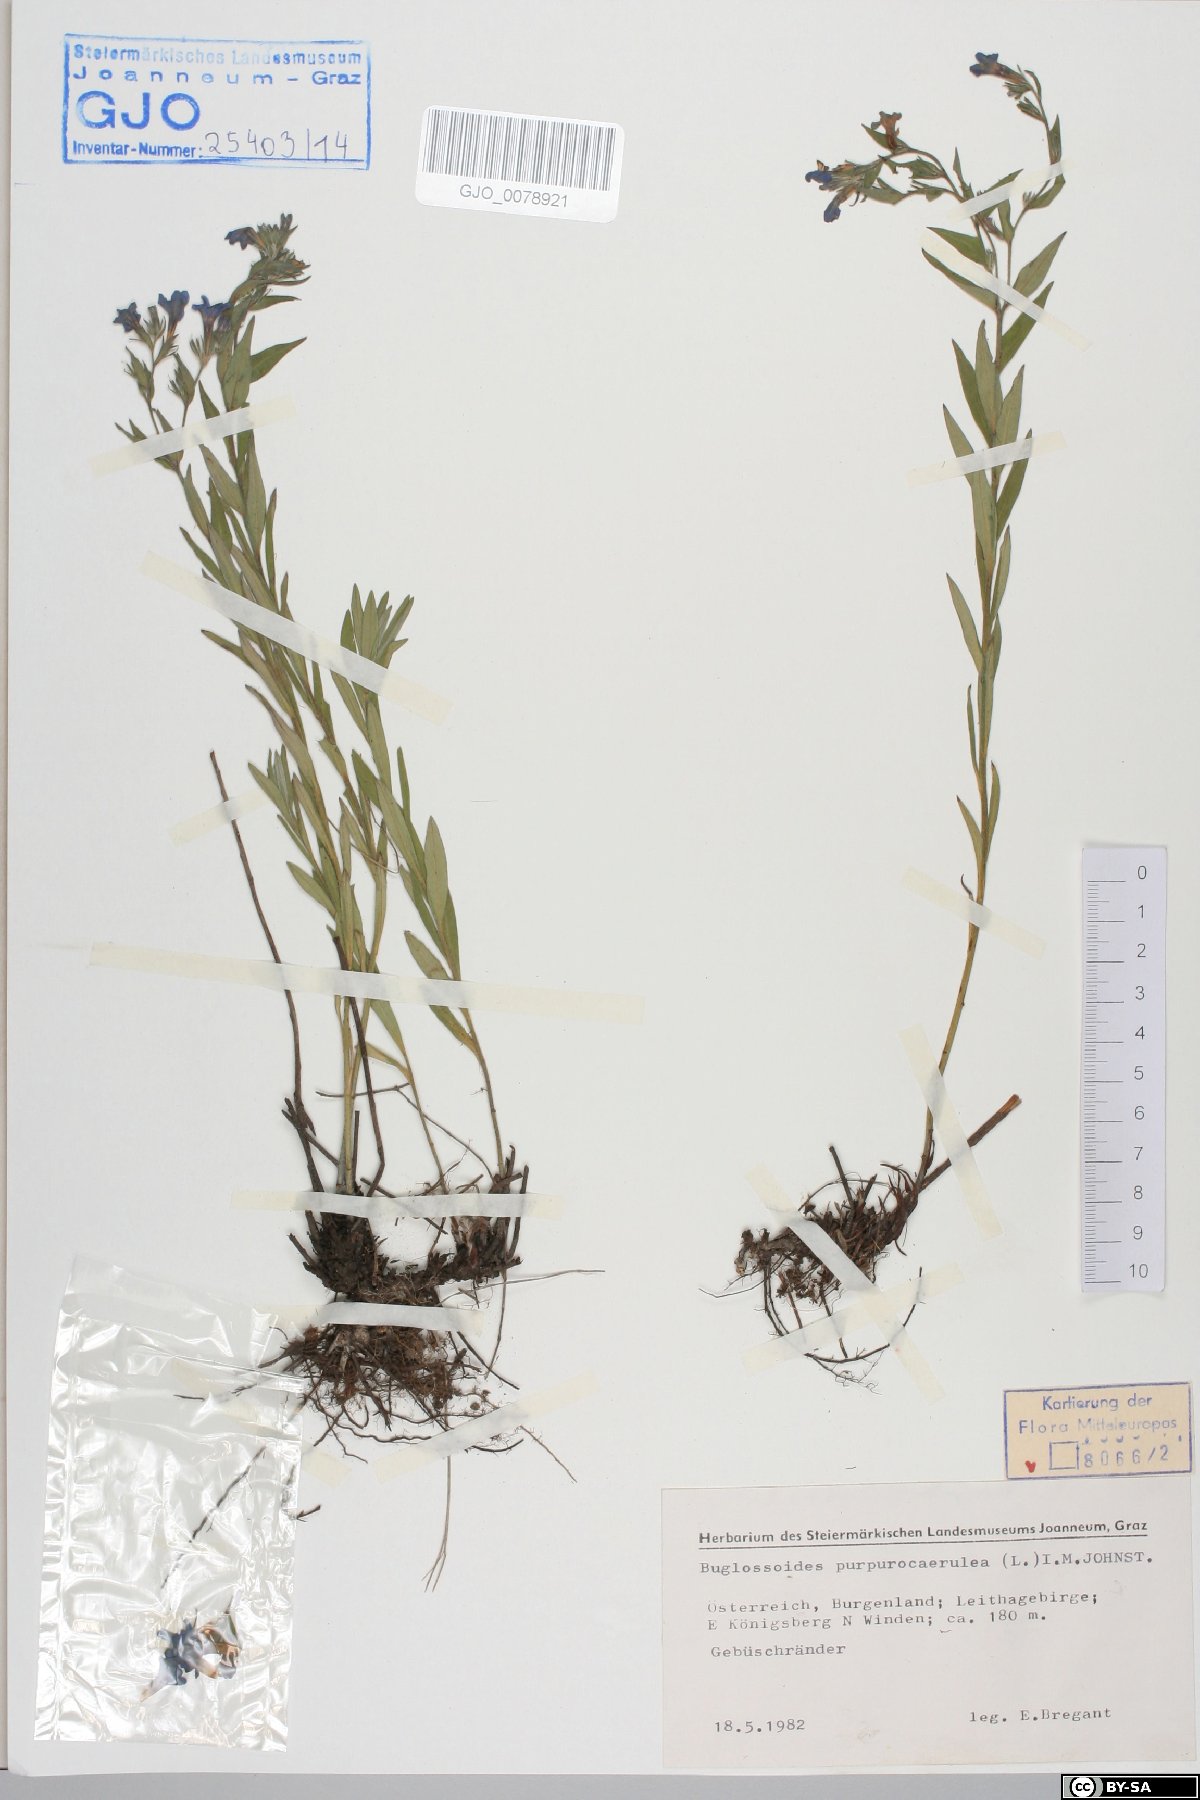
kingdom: Plantae
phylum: Tracheophyta
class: Magnoliopsida
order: Boraginales
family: Boraginaceae
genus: Aegonychon
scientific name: Aegonychon purpurocaeruleum
